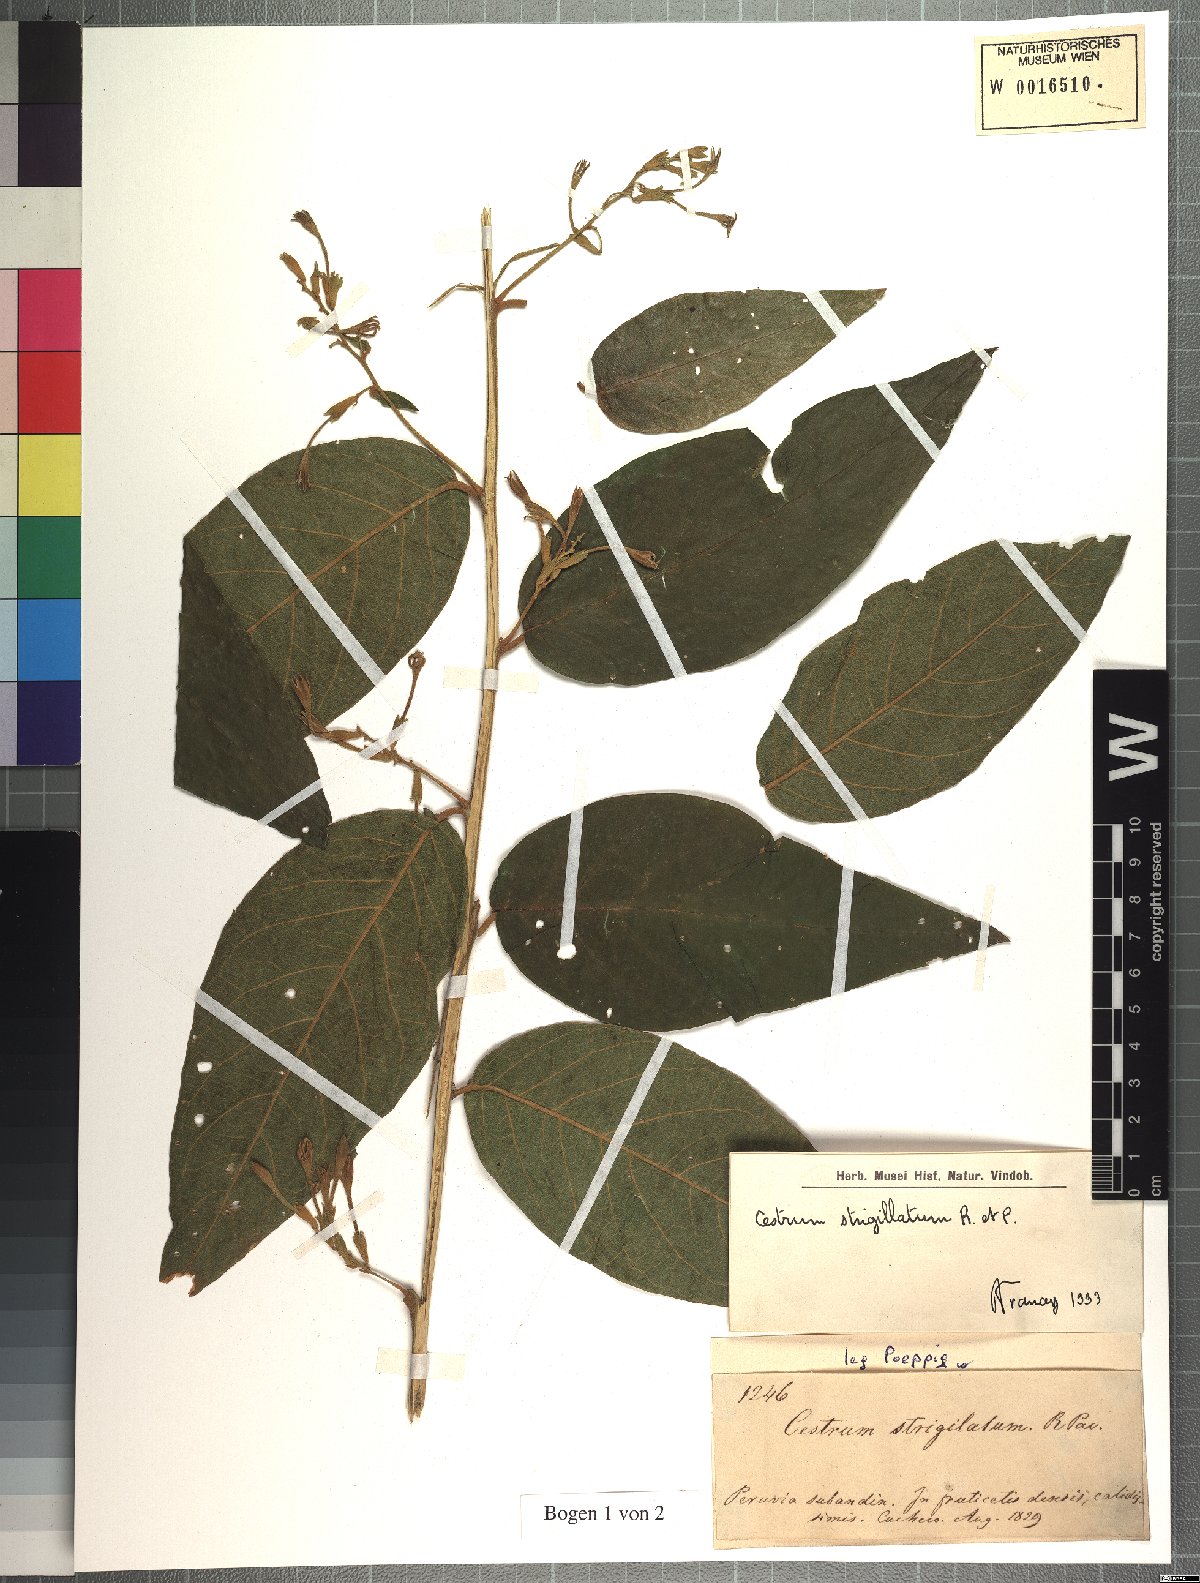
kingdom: Plantae
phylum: Tracheophyta
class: Magnoliopsida
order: Solanales
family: Solanaceae
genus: Cestrum
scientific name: Cestrum strigillatum
